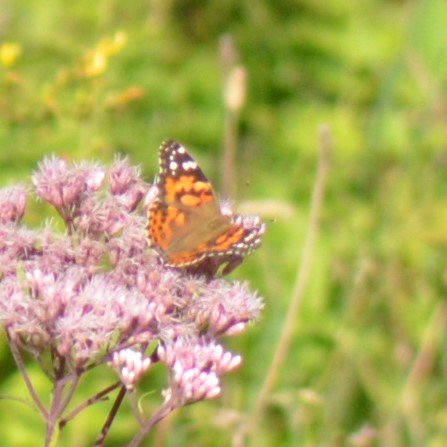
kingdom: Animalia
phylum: Arthropoda
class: Insecta
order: Lepidoptera
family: Nymphalidae
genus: Vanessa
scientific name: Vanessa cardui
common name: Painted Lady
